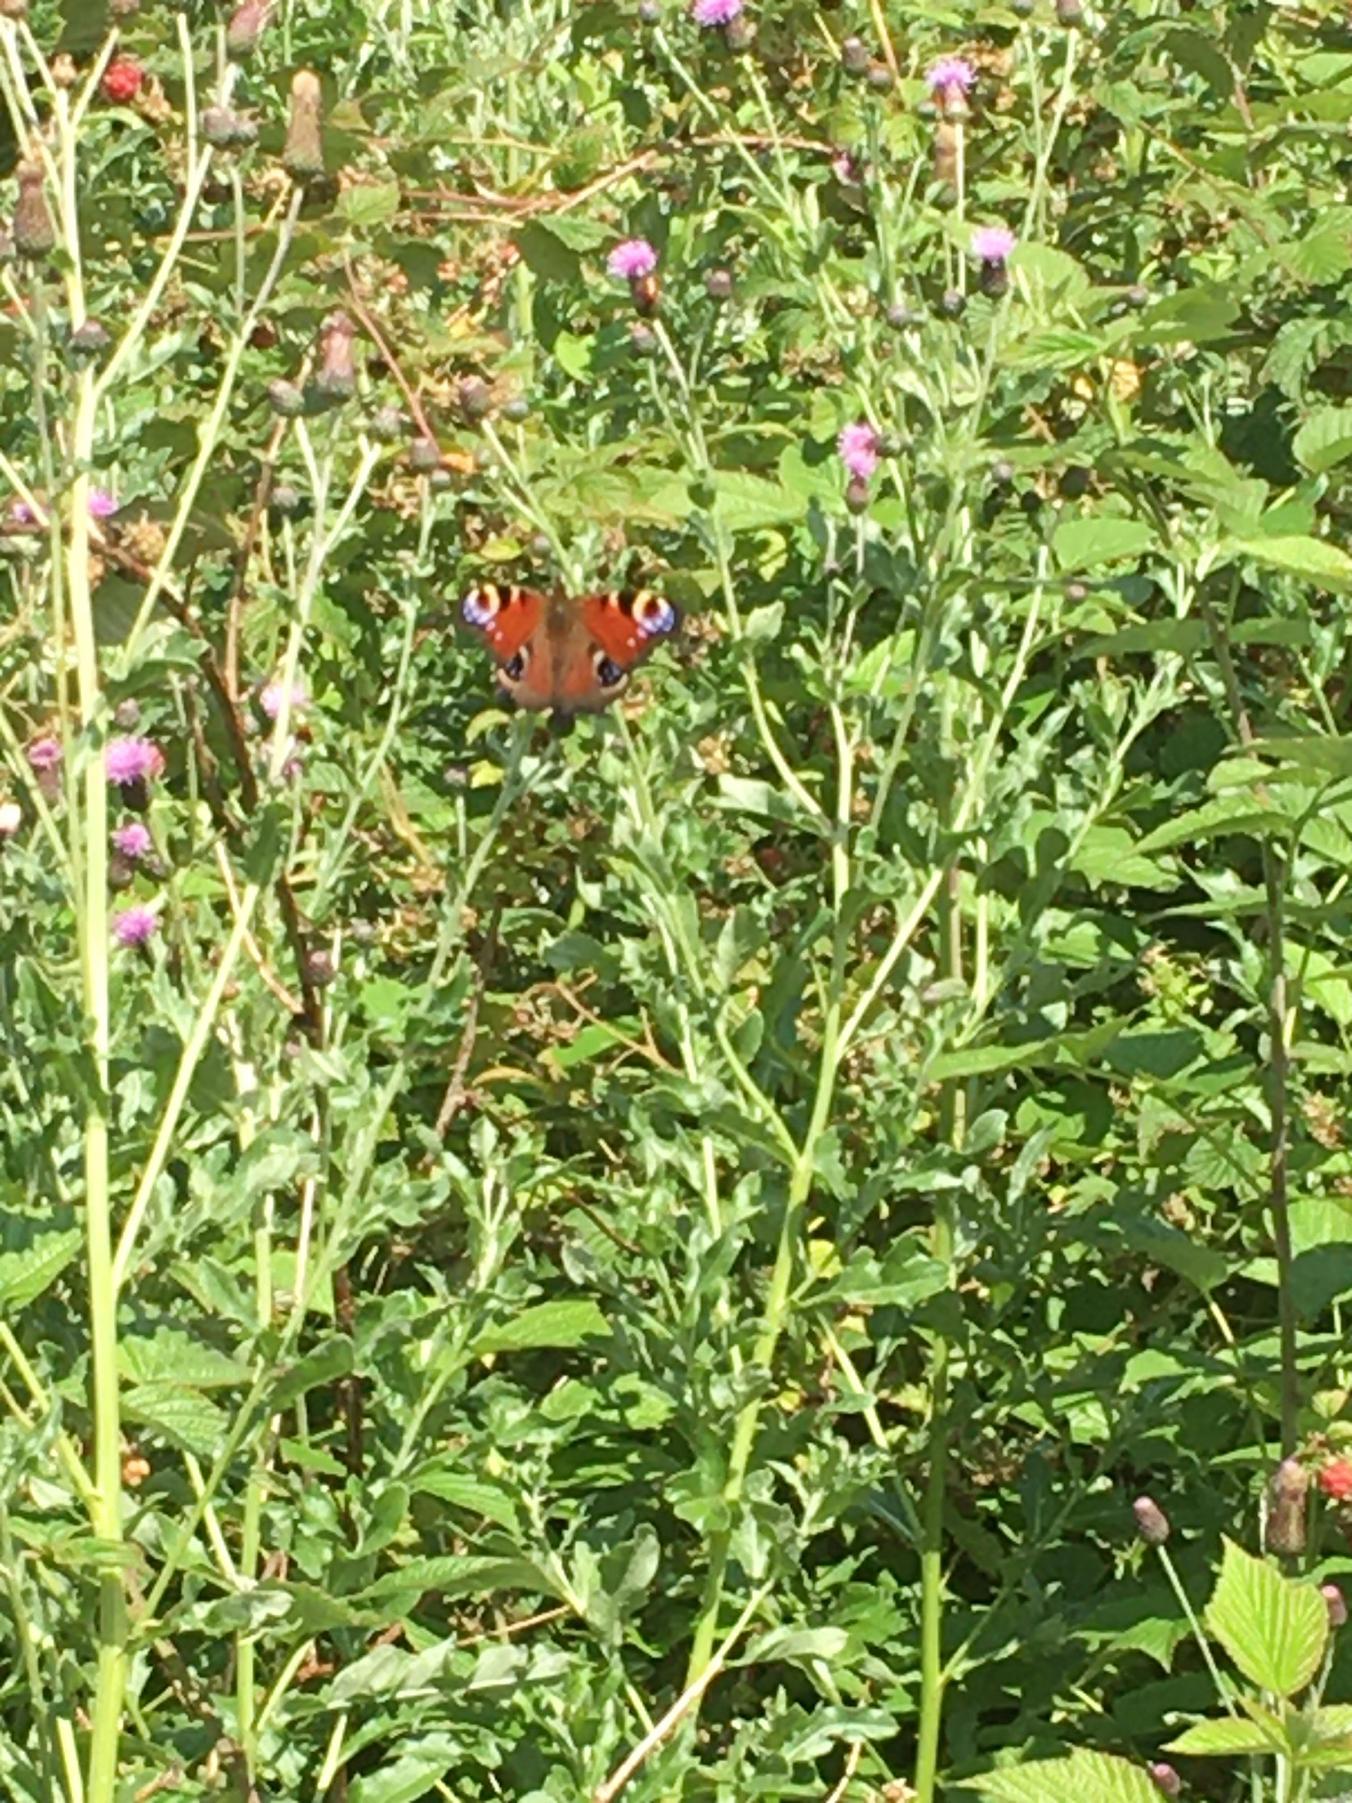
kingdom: Animalia
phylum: Arthropoda
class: Insecta
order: Lepidoptera
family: Nymphalidae
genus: Aglais
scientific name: Aglais io
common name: Dagpåfugleøje
